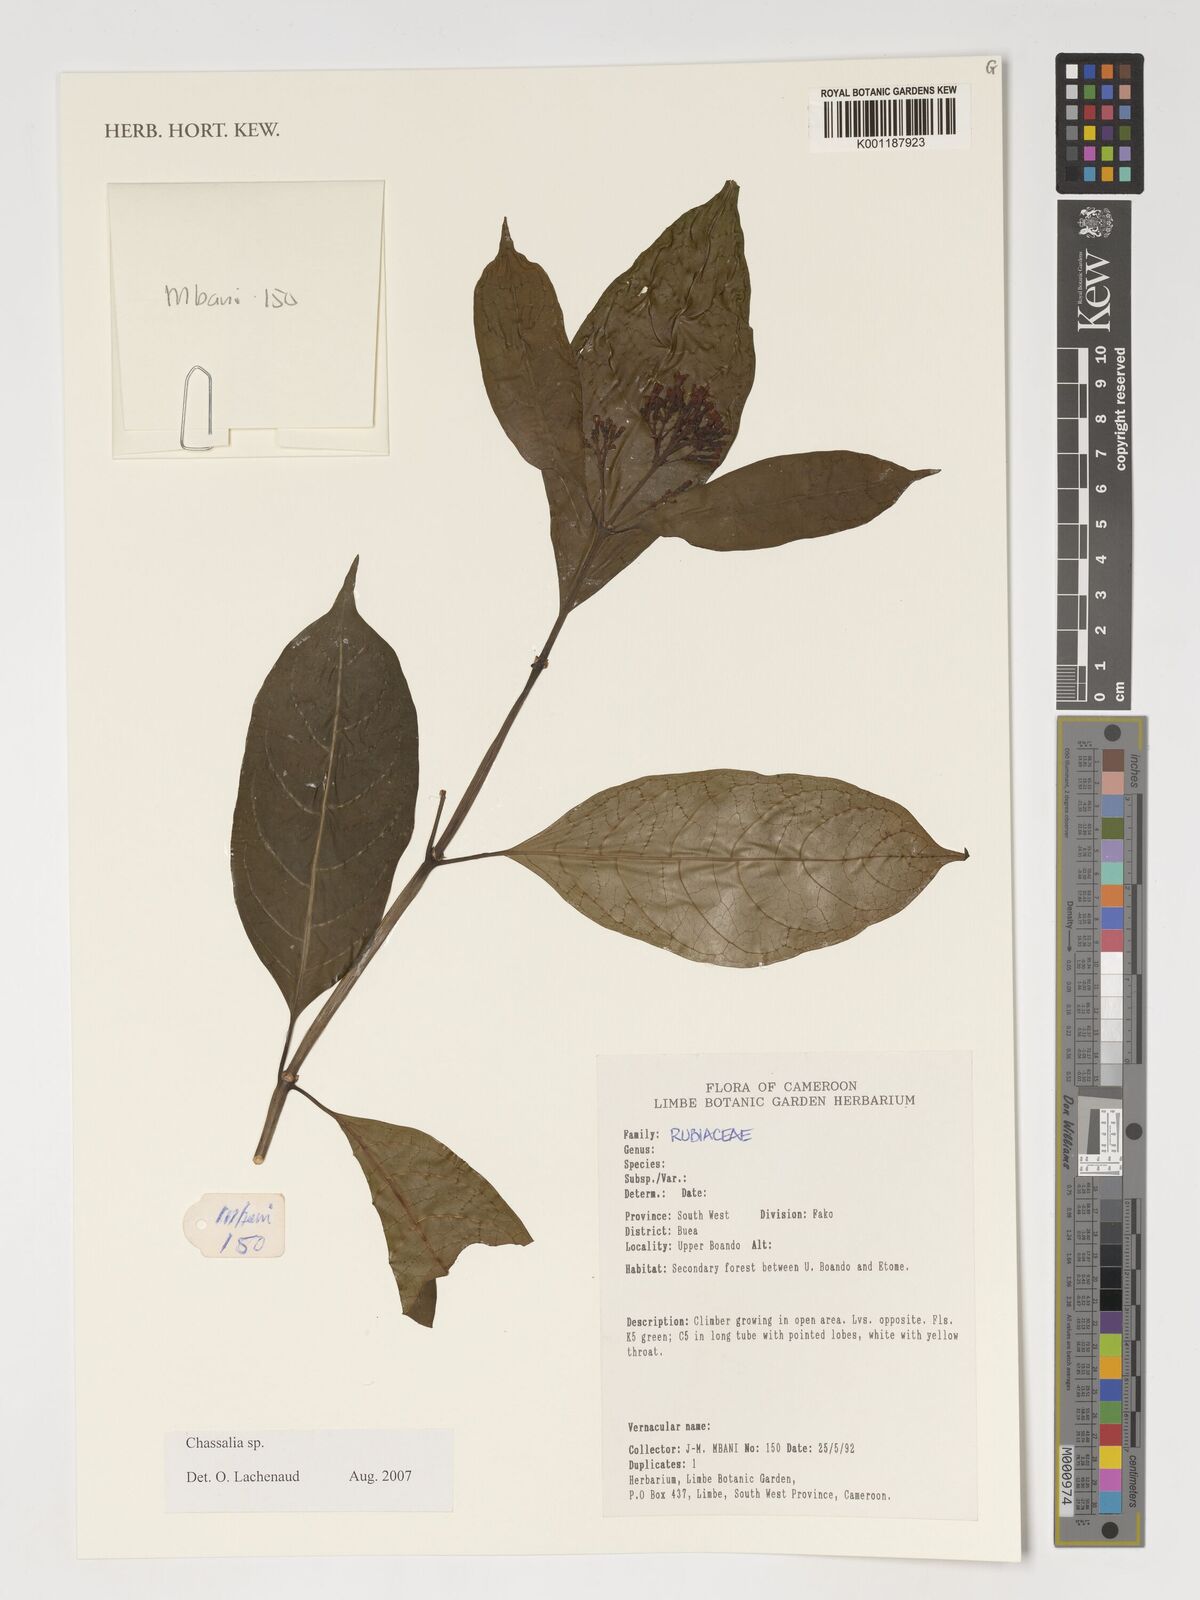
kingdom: Plantae
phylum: Tracheophyta
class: Magnoliopsida
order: Gentianales
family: Rubiaceae
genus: Chassalia
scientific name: Chassalia
